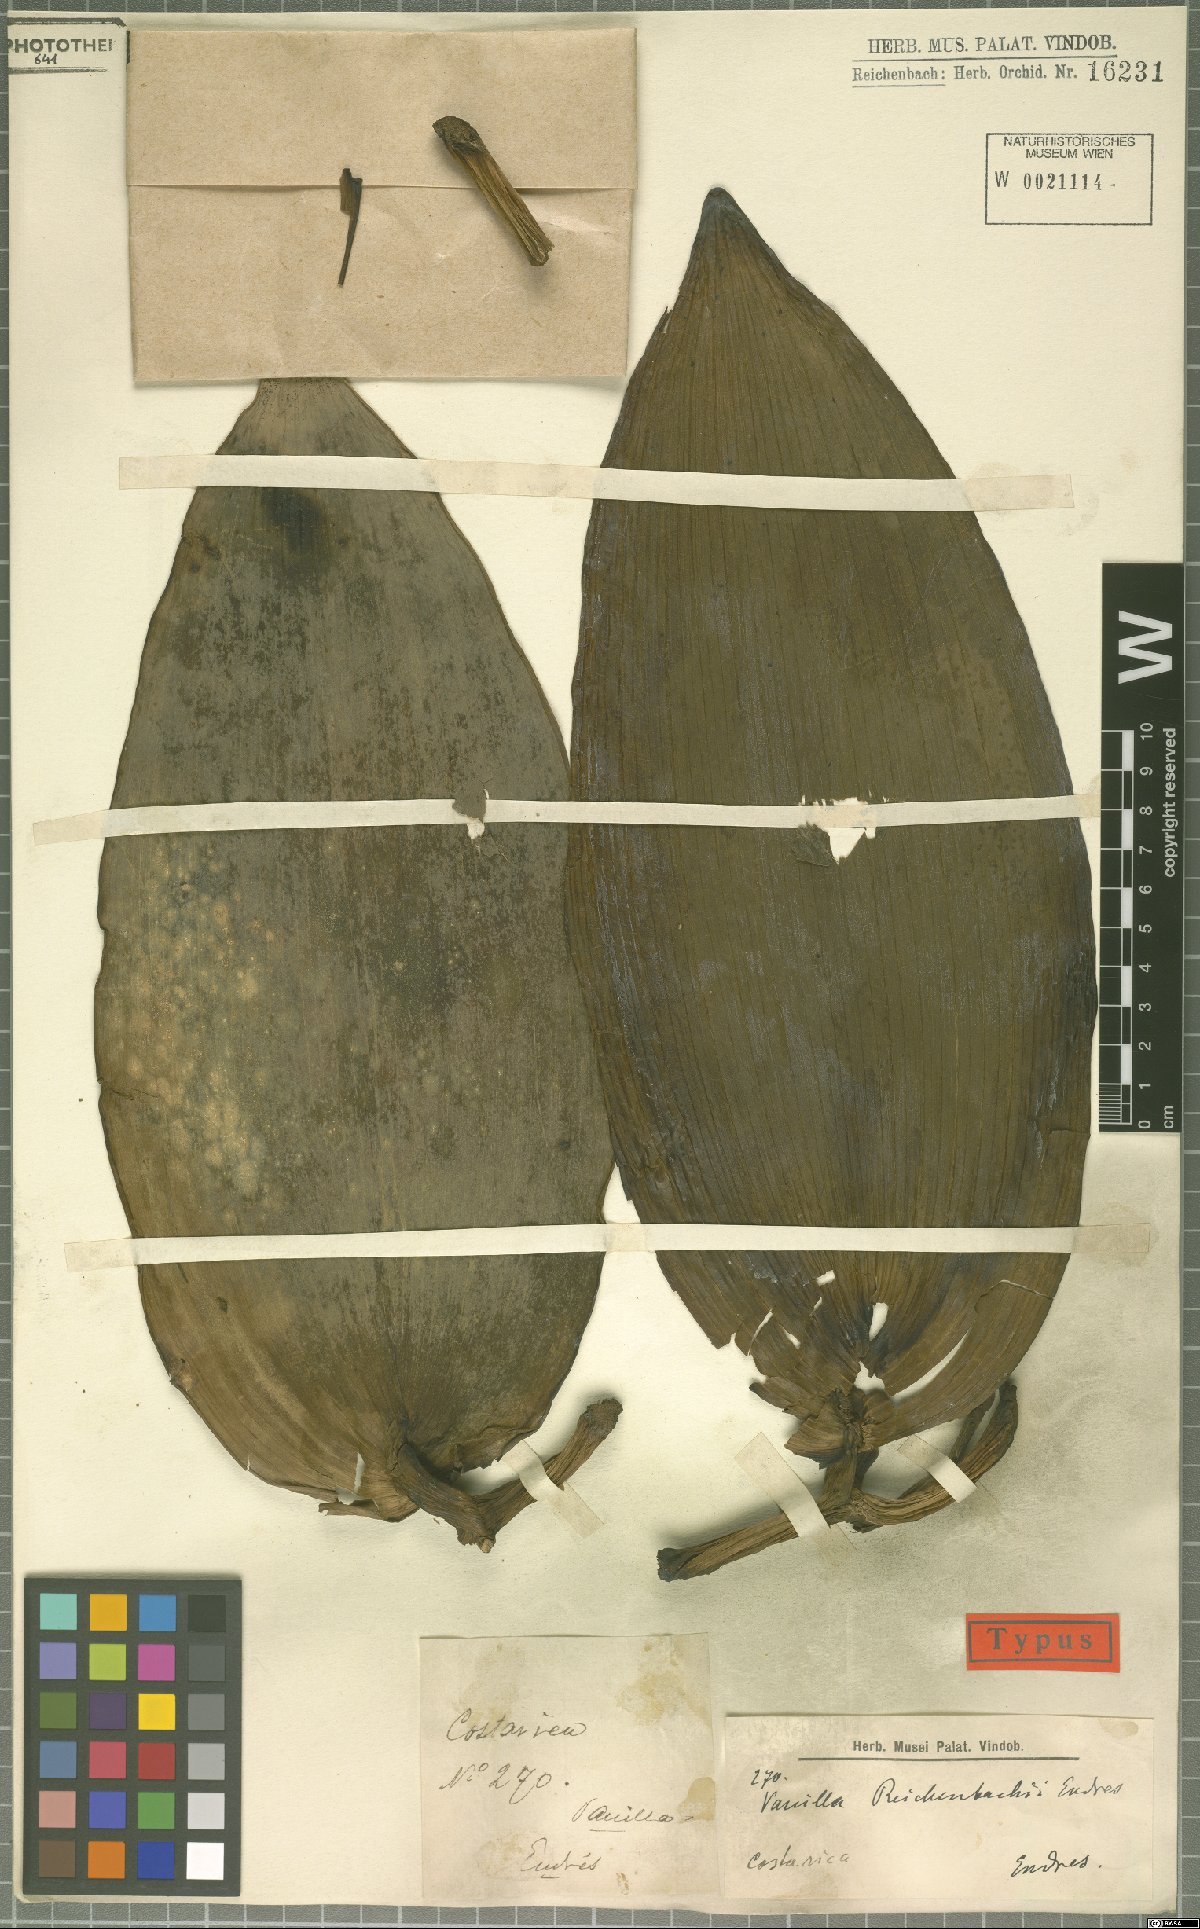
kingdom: Plantae
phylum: Tracheophyta
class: Liliopsida
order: Asparagales
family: Orchidaceae
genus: Vanilla
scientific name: Vanilla pompona
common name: West indian vanilla
